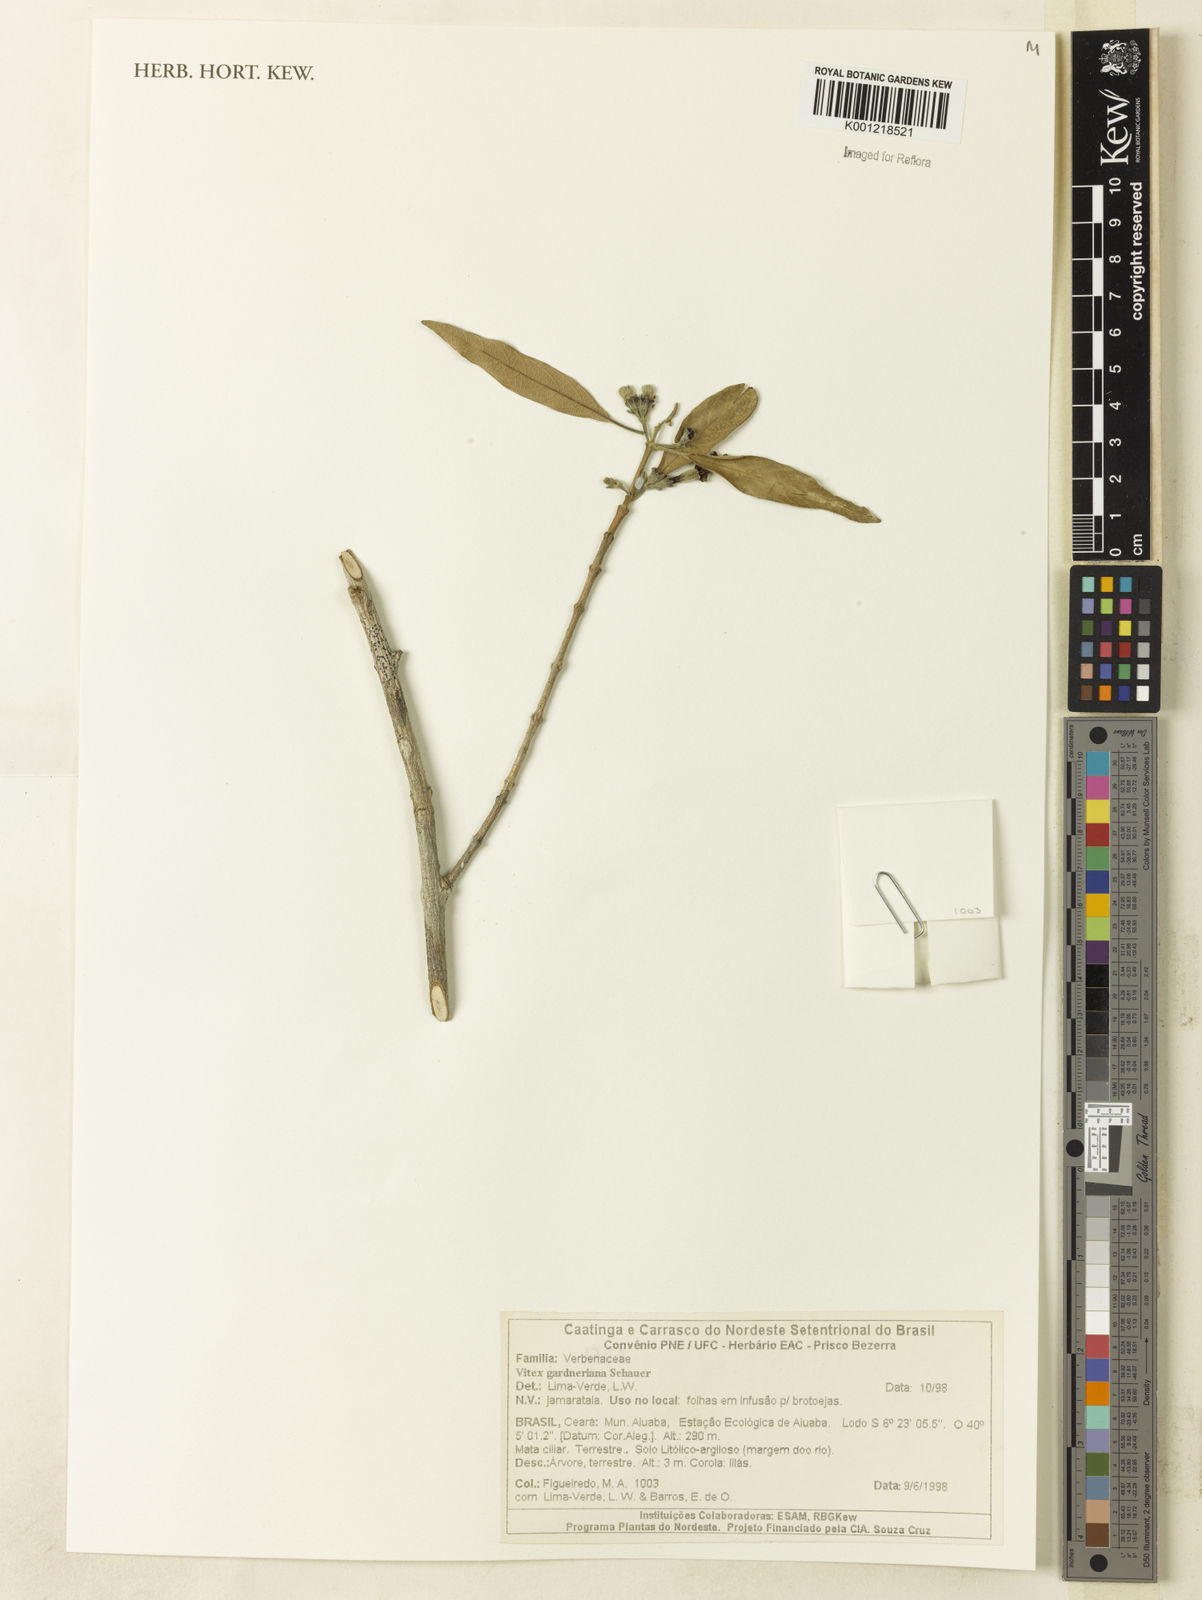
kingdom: Plantae
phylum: Tracheophyta
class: Magnoliopsida
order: Lamiales
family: Lamiaceae
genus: Vitex
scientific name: Vitex gardneriana
